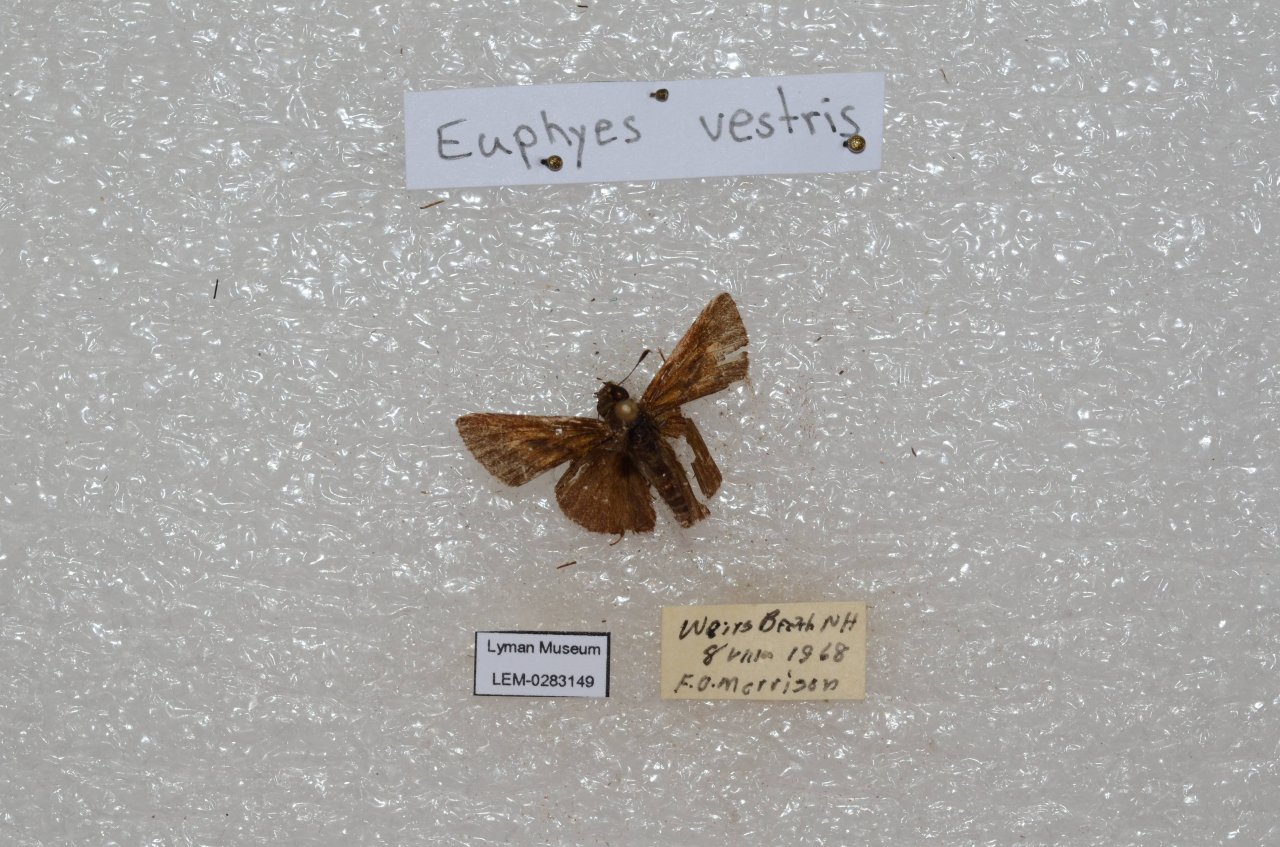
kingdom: Animalia
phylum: Arthropoda
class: Insecta
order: Lepidoptera
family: Hesperiidae
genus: Euphyes
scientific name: Euphyes vestris
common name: Dun Skipper
